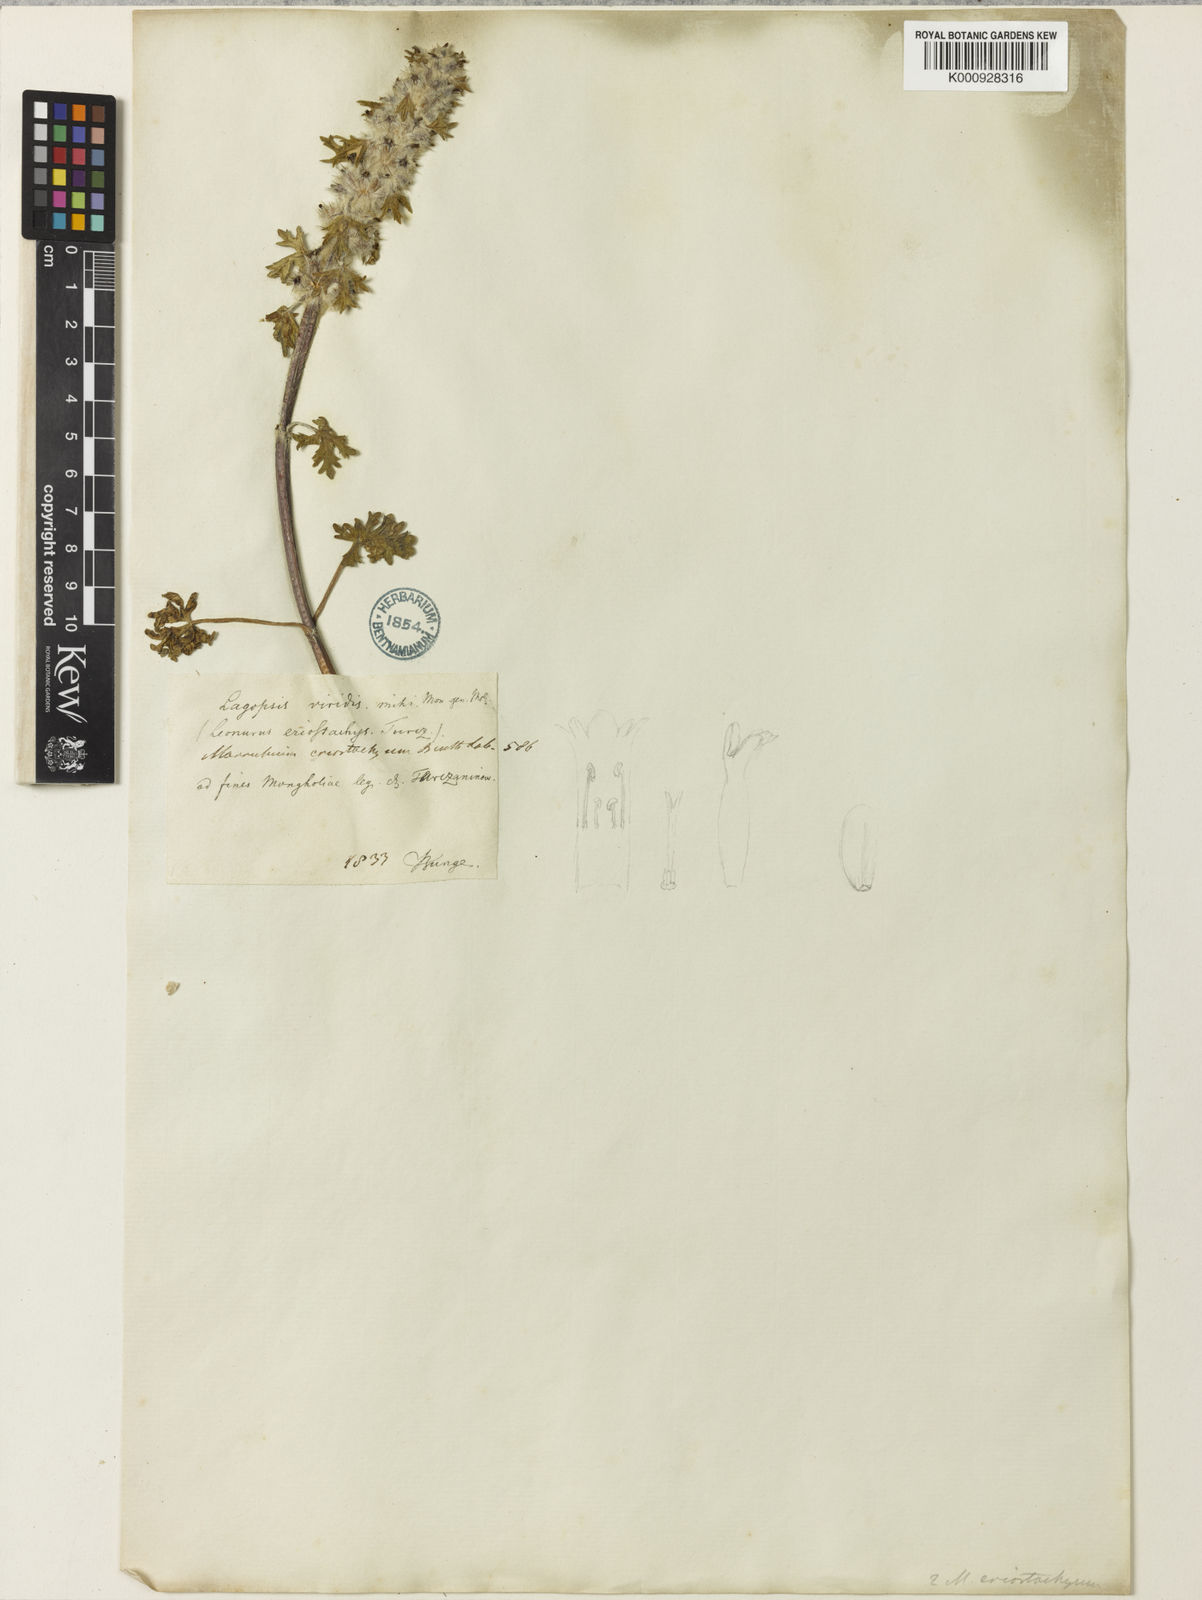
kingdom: Plantae
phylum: Tracheophyta
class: Magnoliopsida
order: Lamiales
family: Lamiaceae
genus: Lagopsis
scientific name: Lagopsis eriostachya
